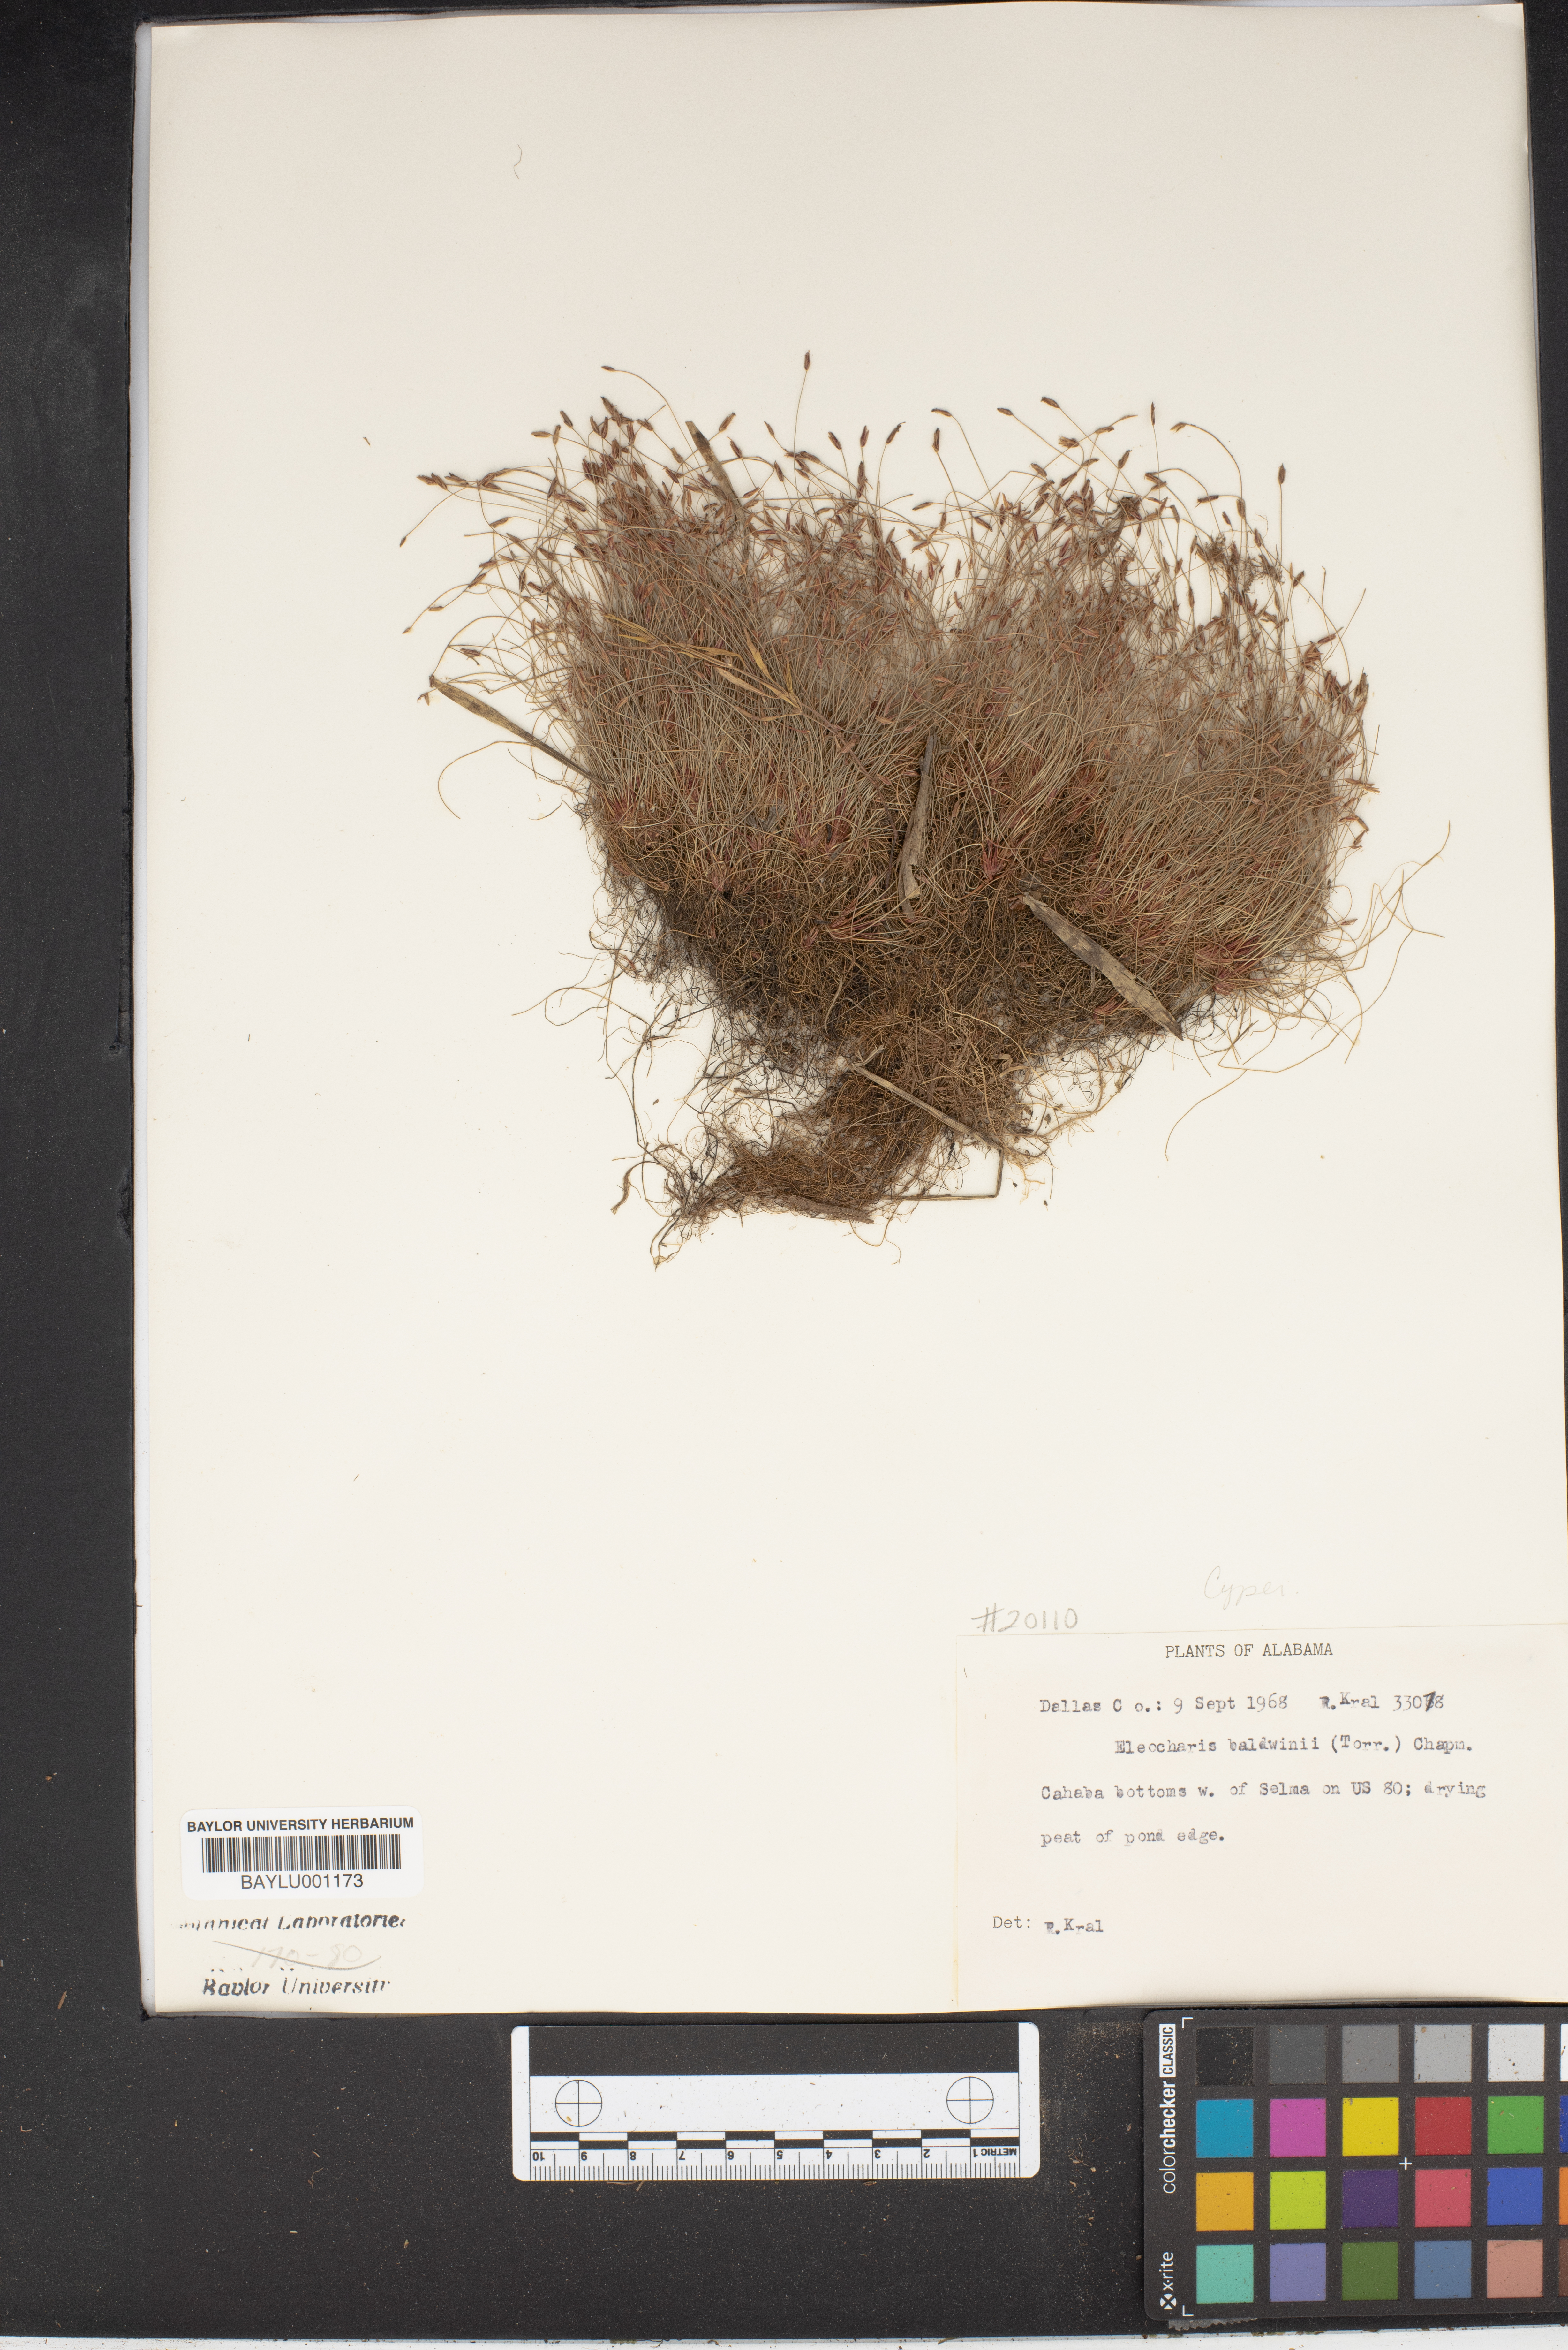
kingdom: Plantae
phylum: Tracheophyta
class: Liliopsida
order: Poales
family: Cyperaceae
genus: Eleocharis
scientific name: Eleocharis baldwinii
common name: Baldwin's spike-rush
